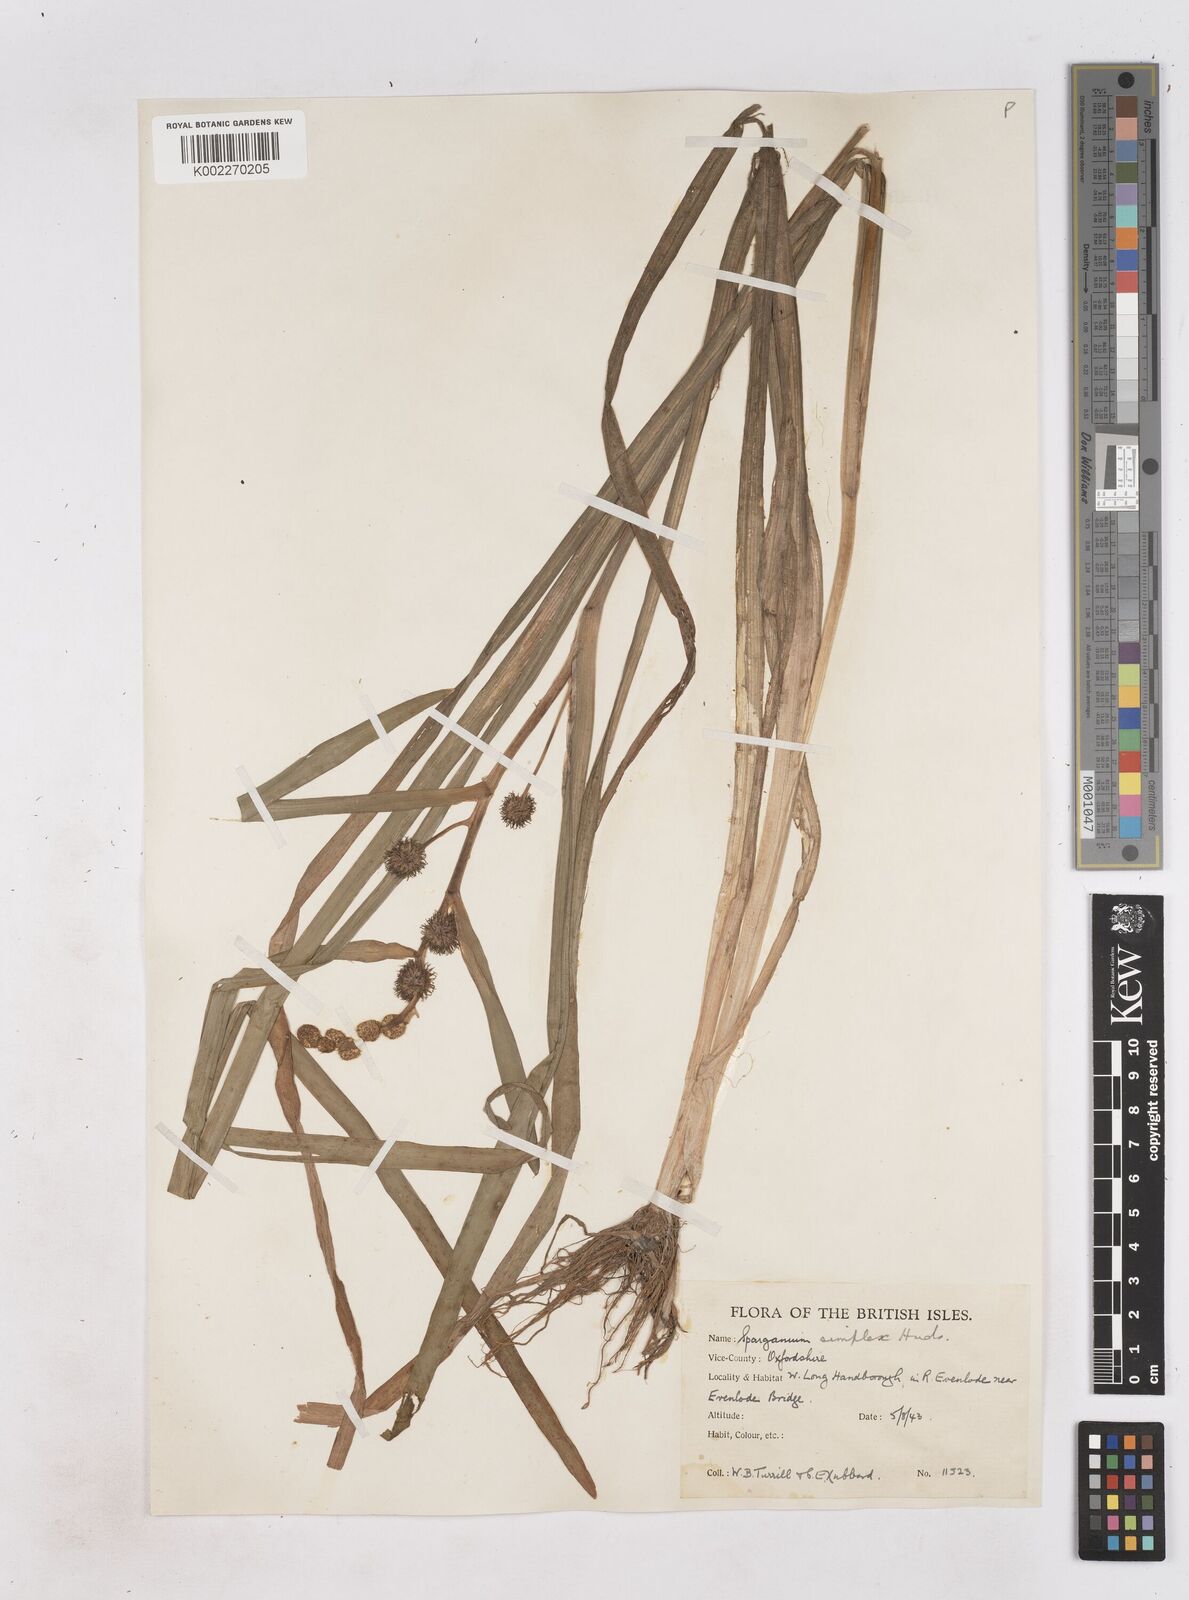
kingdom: Plantae
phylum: Tracheophyta
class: Liliopsida
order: Poales
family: Typhaceae
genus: Sparganium
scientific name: Sparganium emersum
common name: Unbranched bur-reed
